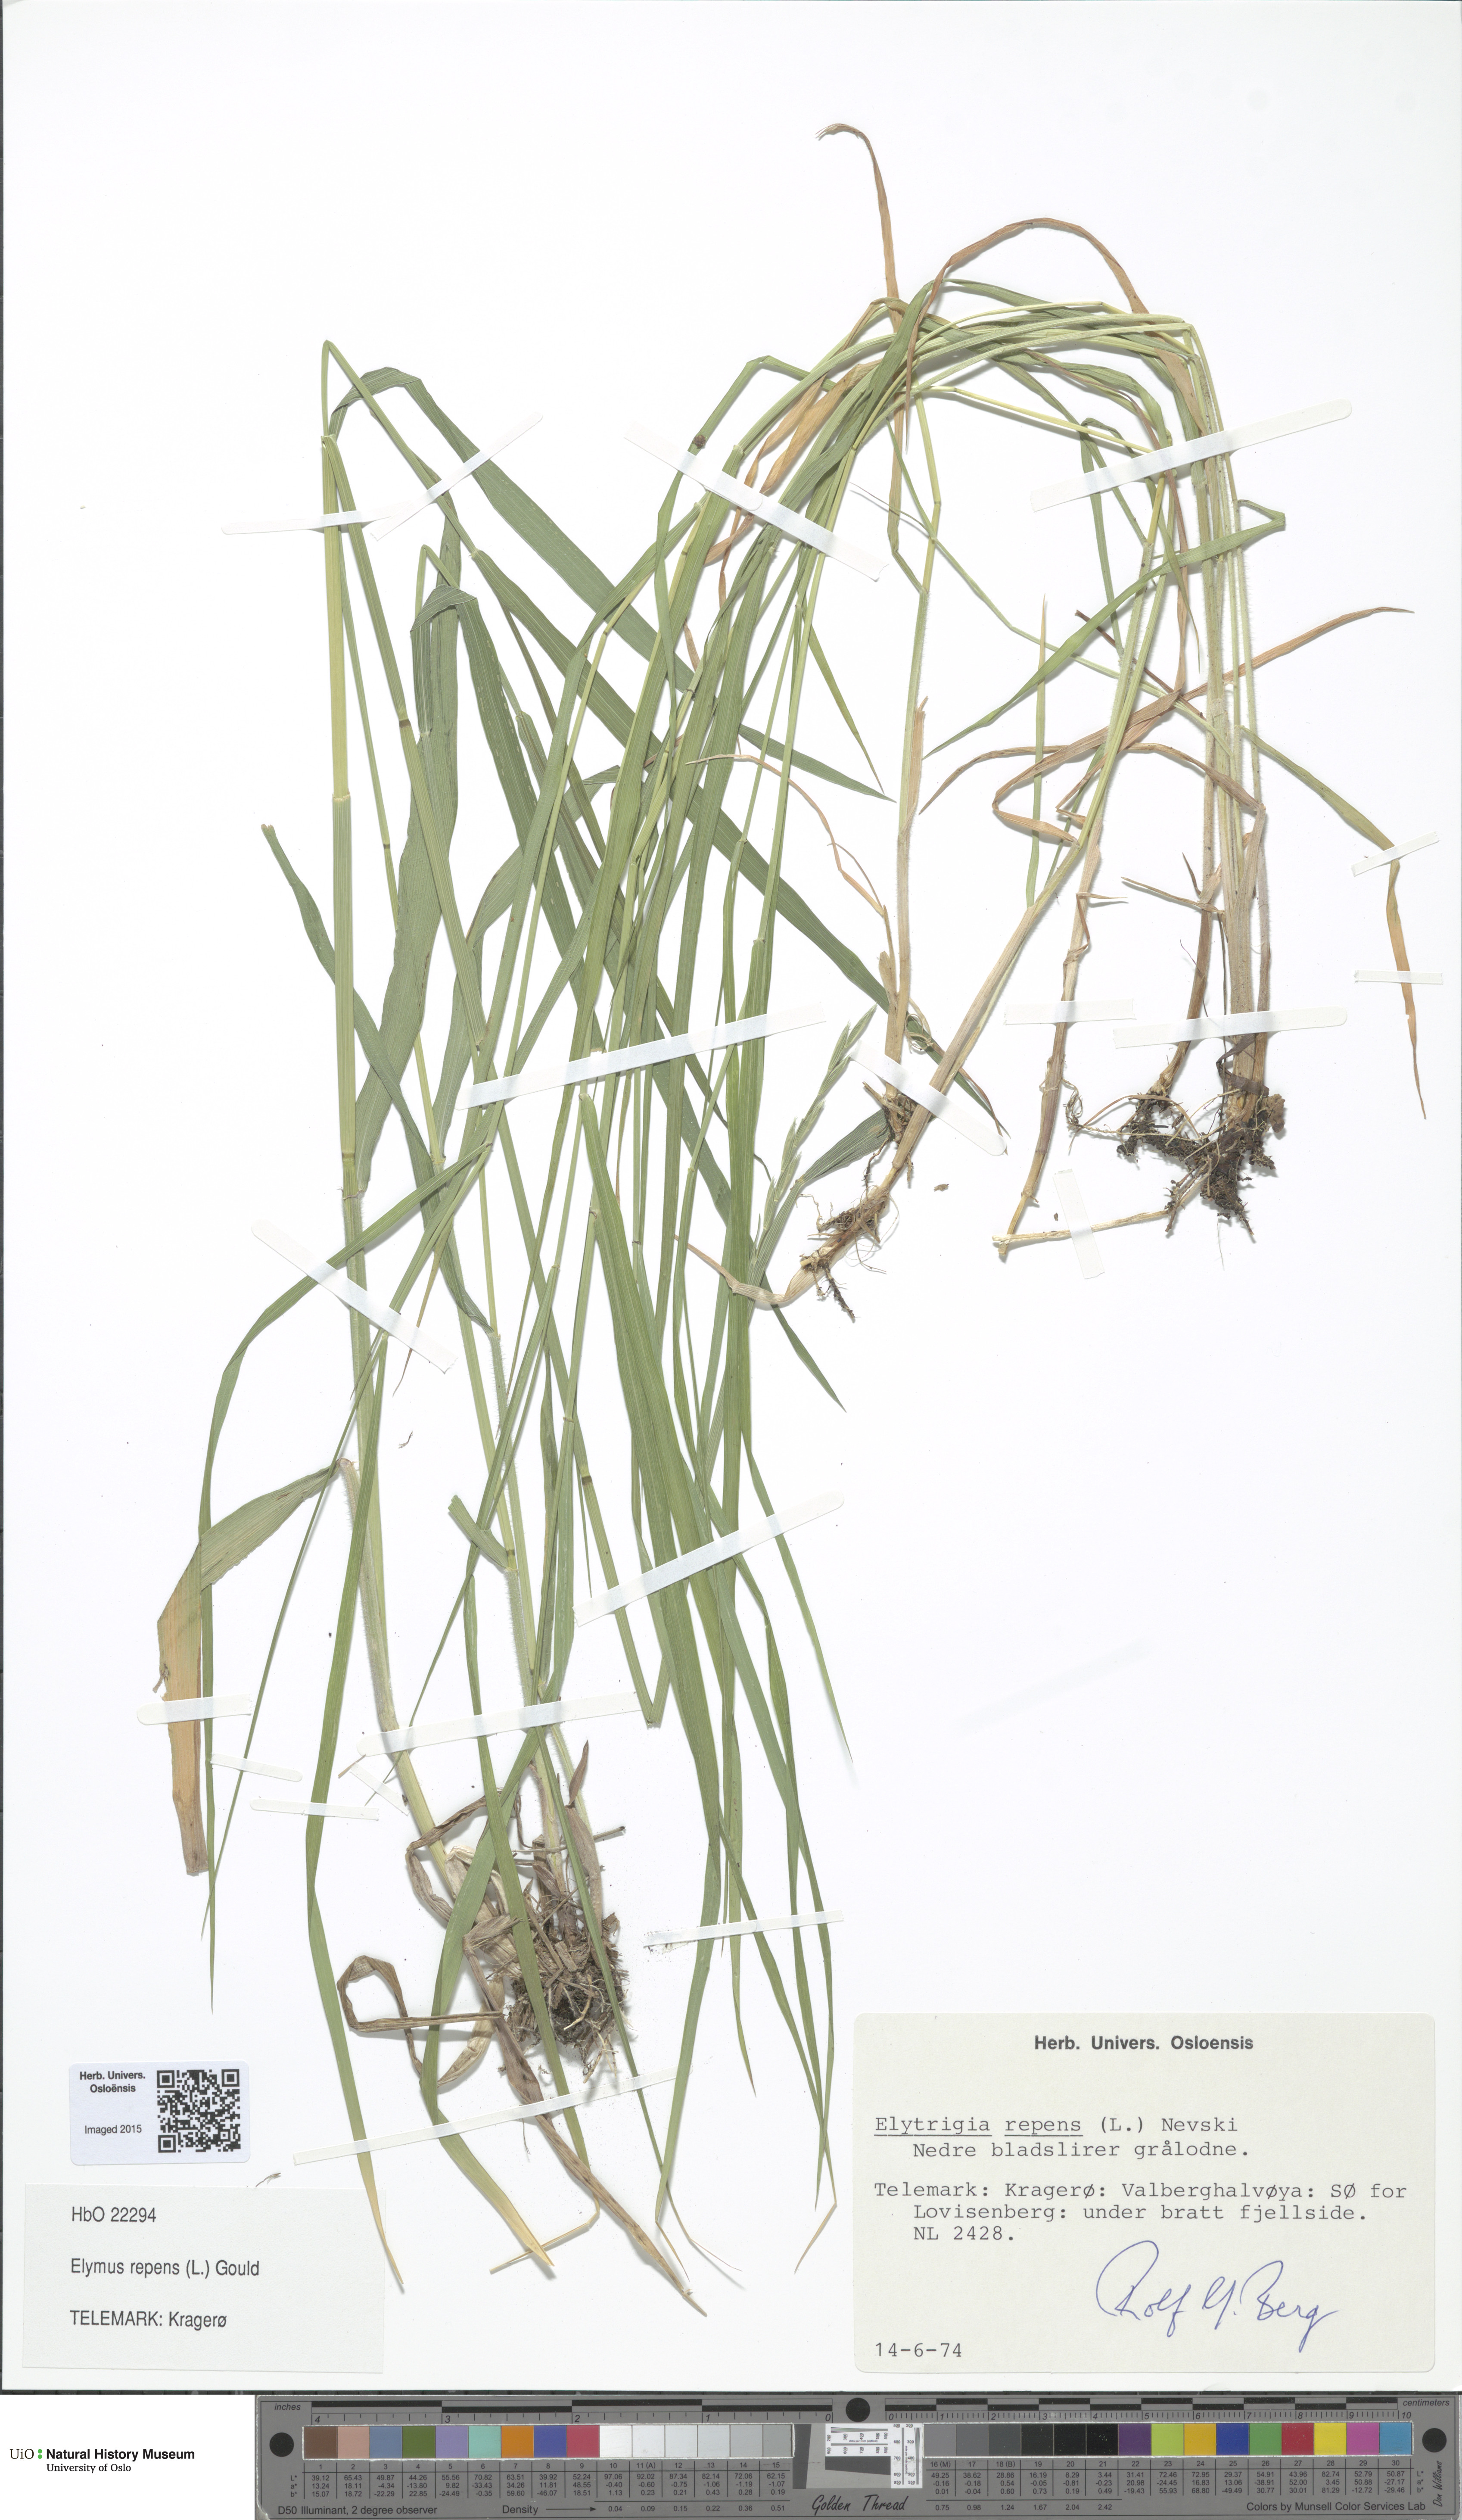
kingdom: Plantae
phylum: Tracheophyta
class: Liliopsida
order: Poales
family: Poaceae
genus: Elymus
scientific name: Elymus repens
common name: Quackgrass
